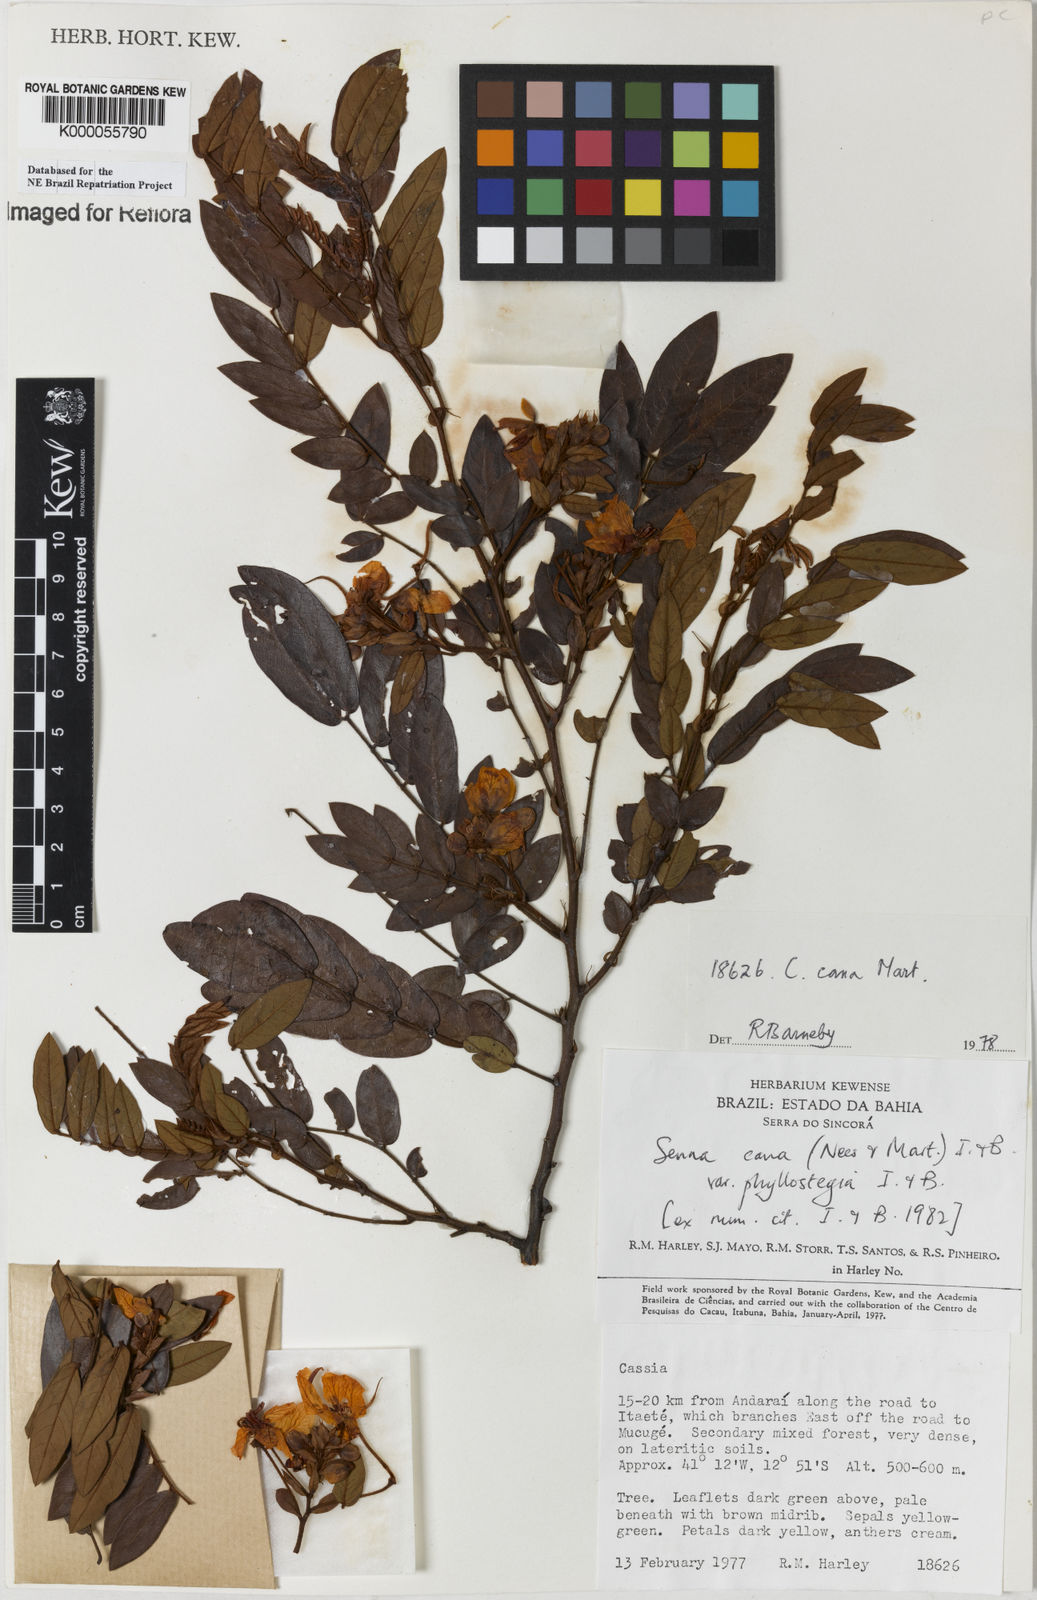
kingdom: Plantae
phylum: Tracheophyta
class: Magnoliopsida
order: Fabales
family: Fabaceae
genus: Senna
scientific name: Senna cana
